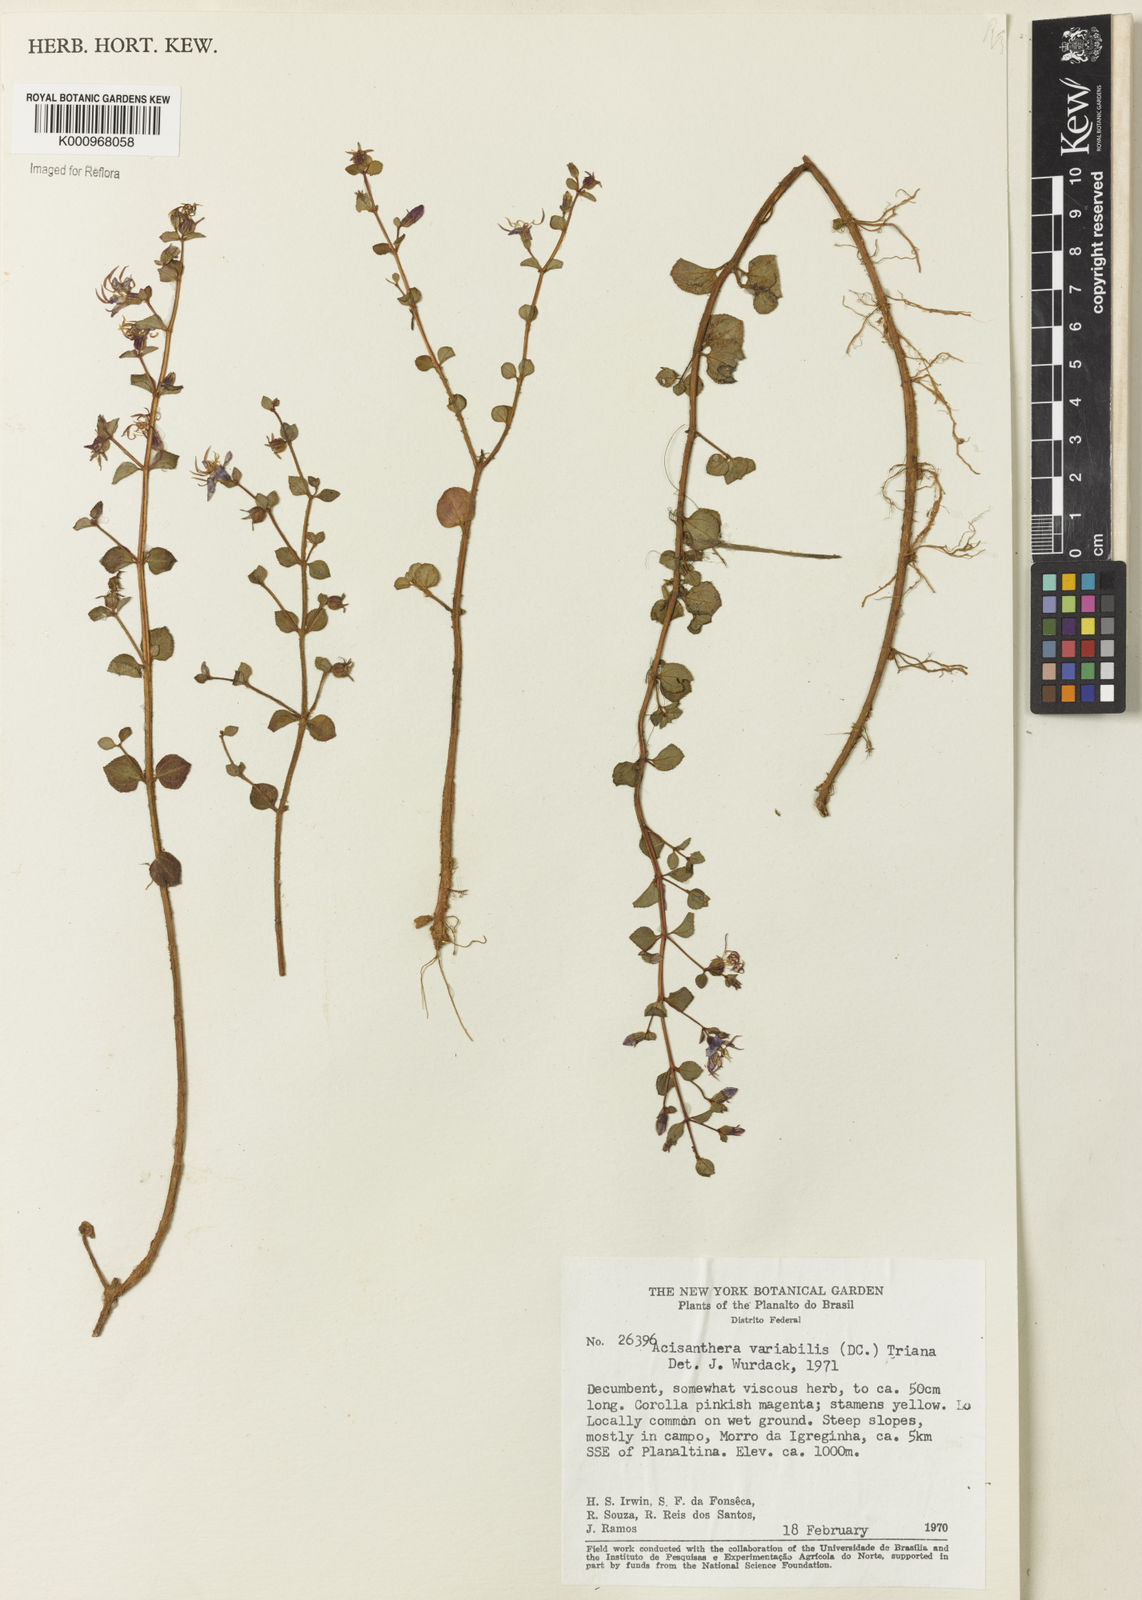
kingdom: Plantae
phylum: Tracheophyta
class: Magnoliopsida
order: Myrtales
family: Melastomataceae
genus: Acisanthera
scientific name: Acisanthera variabilis
